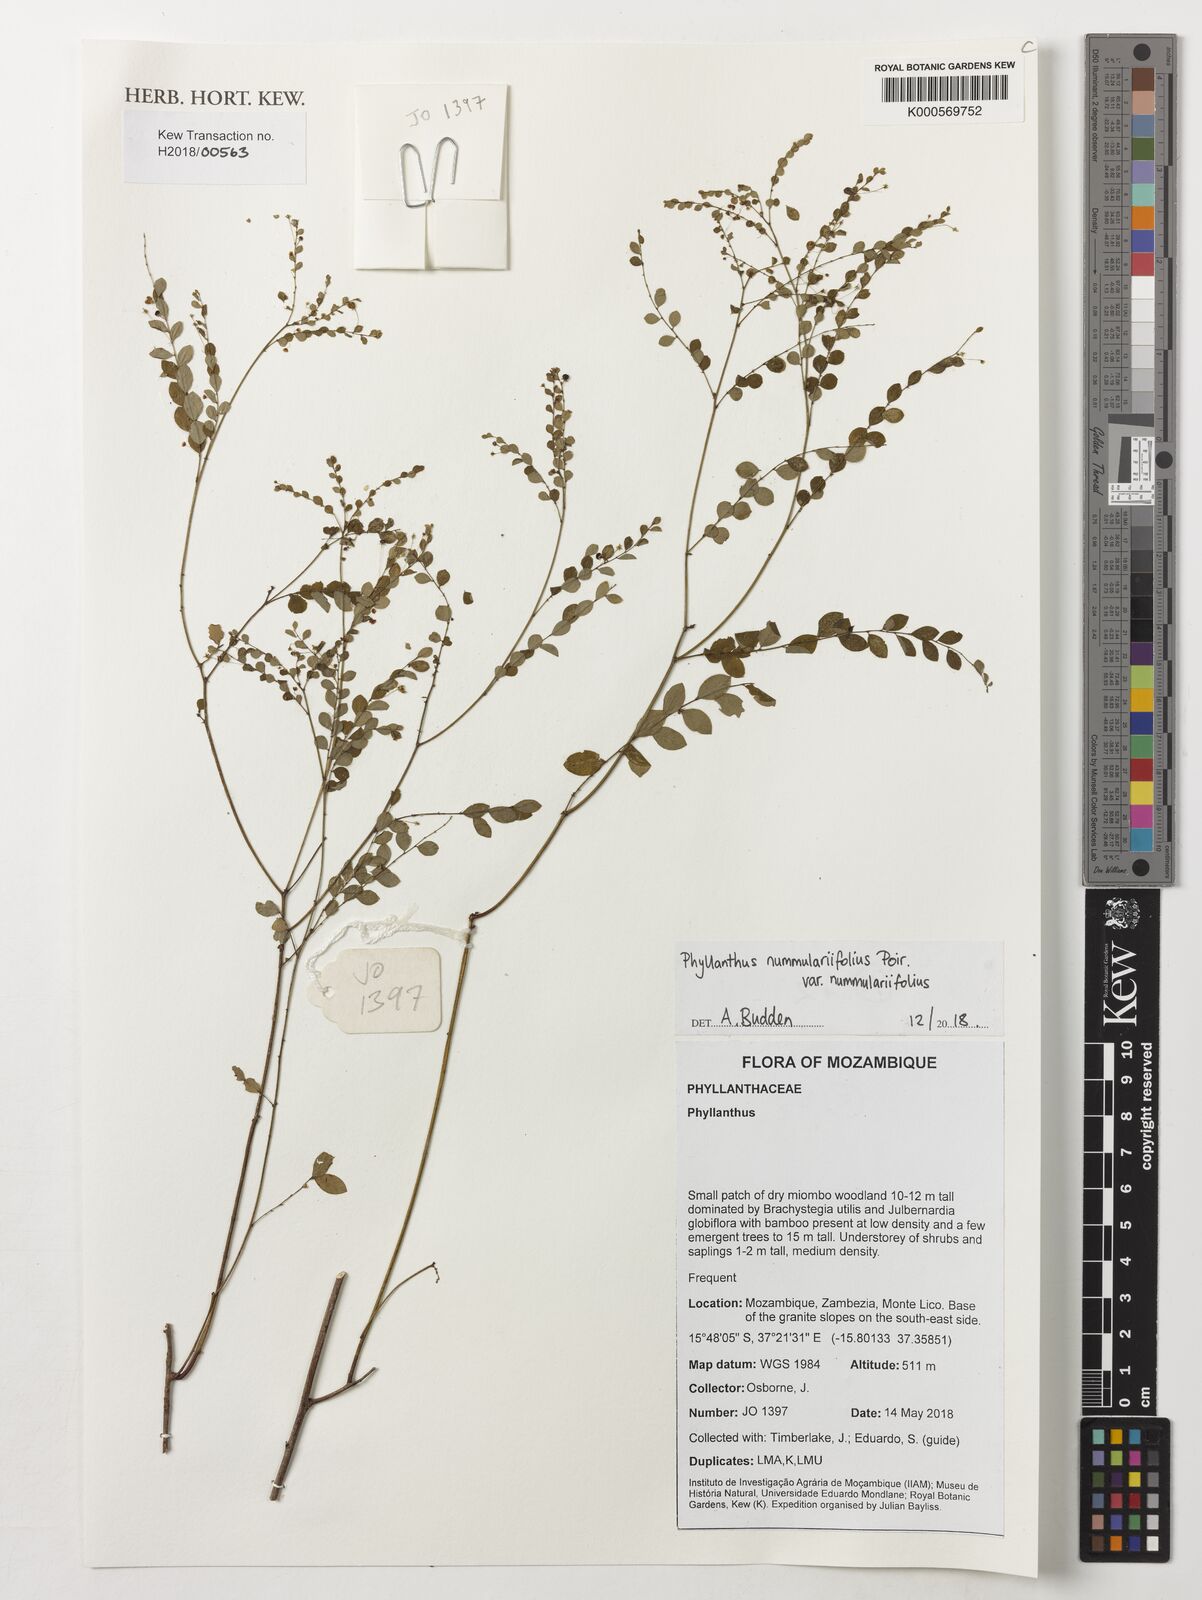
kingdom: Plantae
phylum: Tracheophyta
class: Magnoliopsida
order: Malpighiales
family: Phyllanthaceae
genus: Phyllanthus
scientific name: Phyllanthus nummulariifolius
